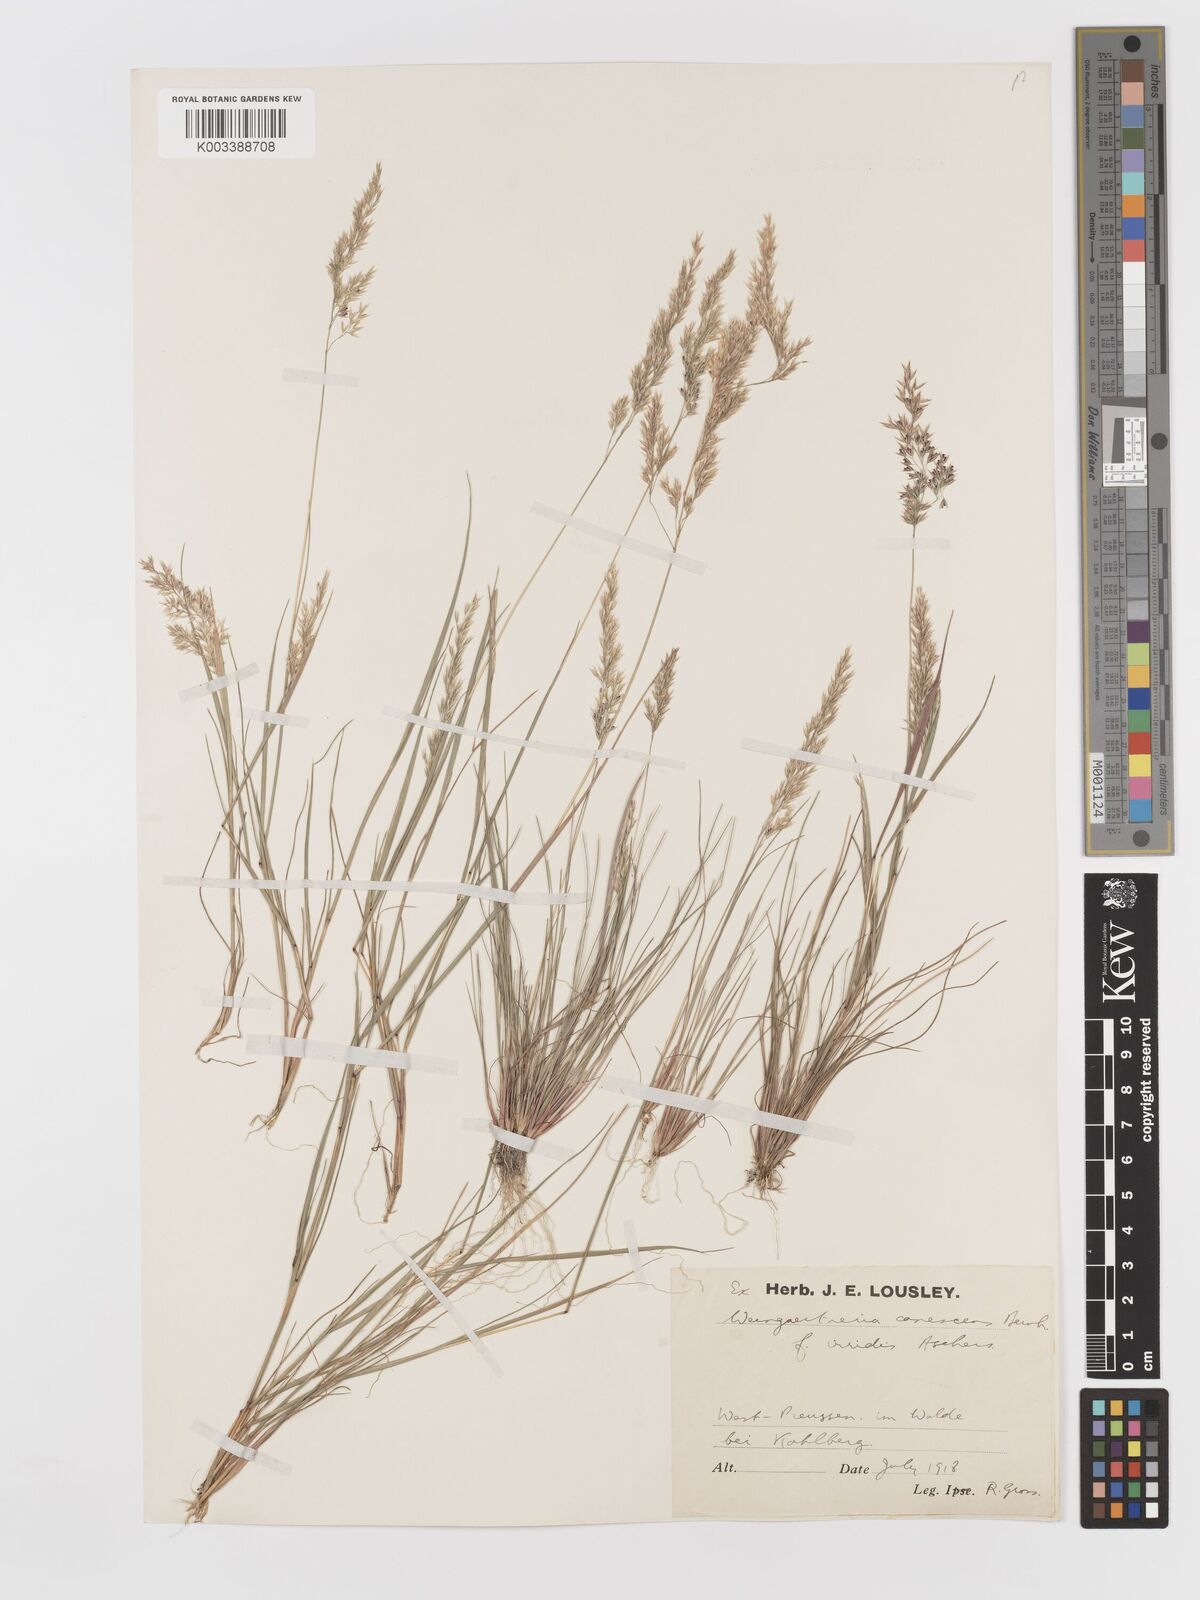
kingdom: Plantae
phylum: Tracheophyta
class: Liliopsida
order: Poales
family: Poaceae
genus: Corynephorus
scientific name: Corynephorus canescens
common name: Grey hair-grass
